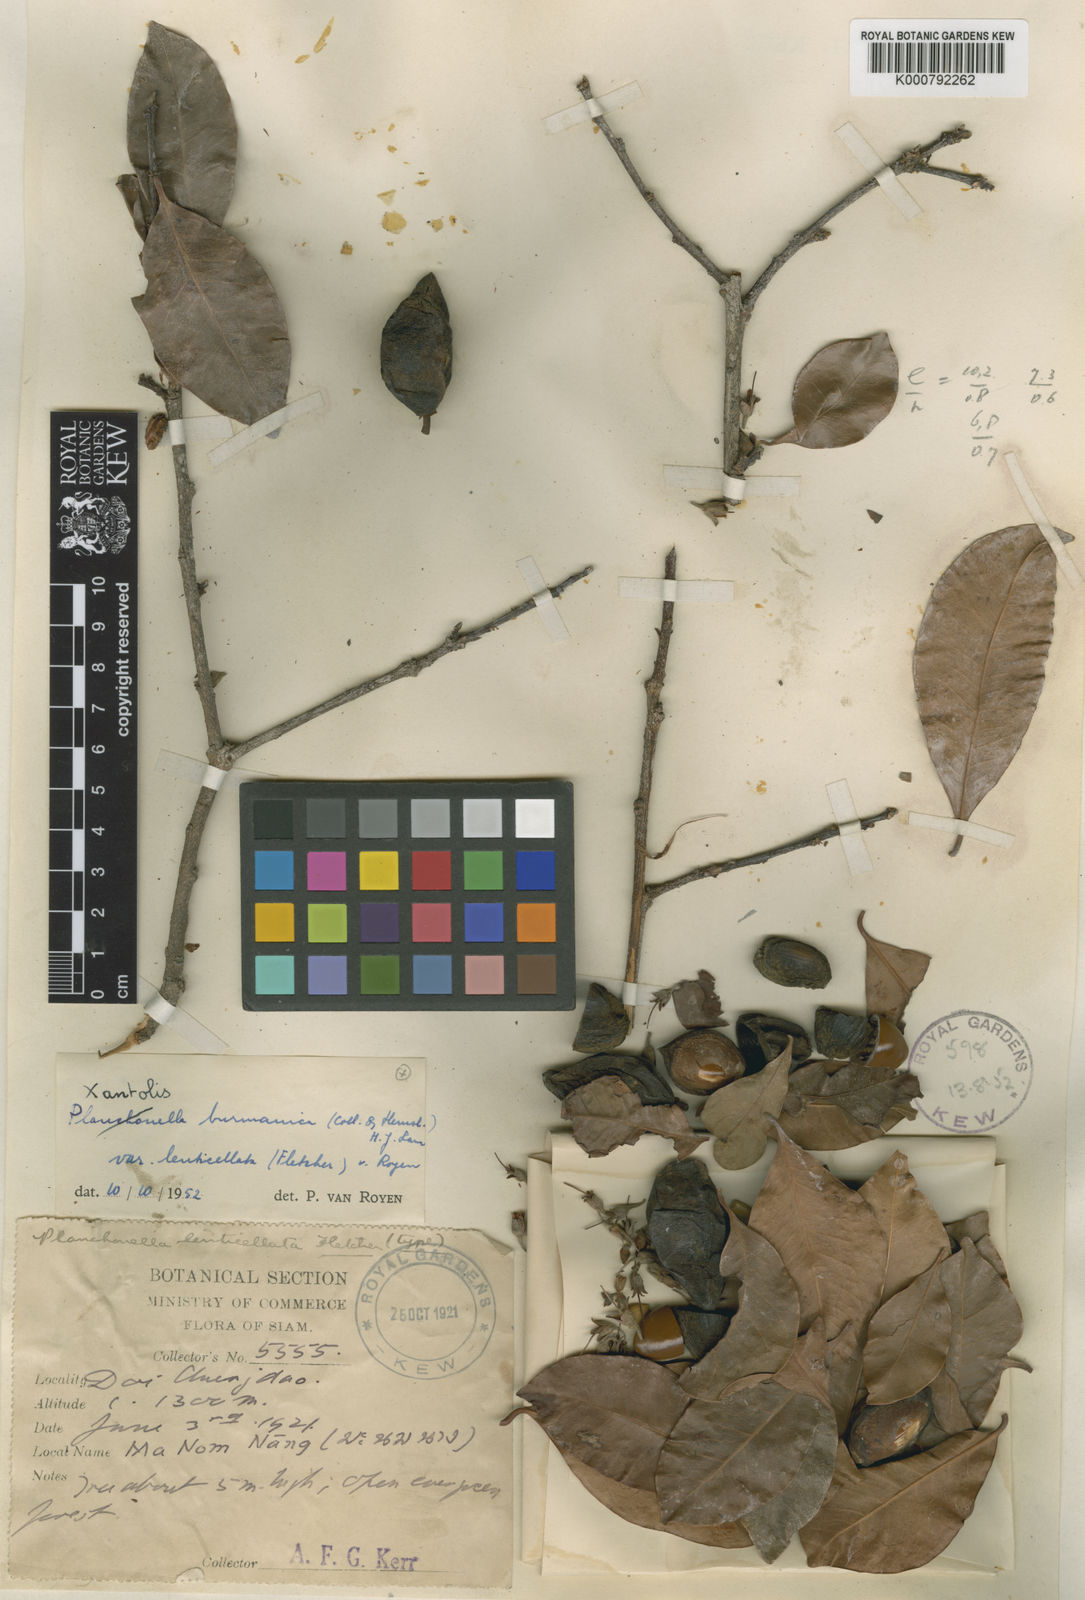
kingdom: Plantae
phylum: Tracheophyta
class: Magnoliopsida
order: Ericales
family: Sapotaceae
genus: Xantolis
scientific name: Xantolis burmanica
